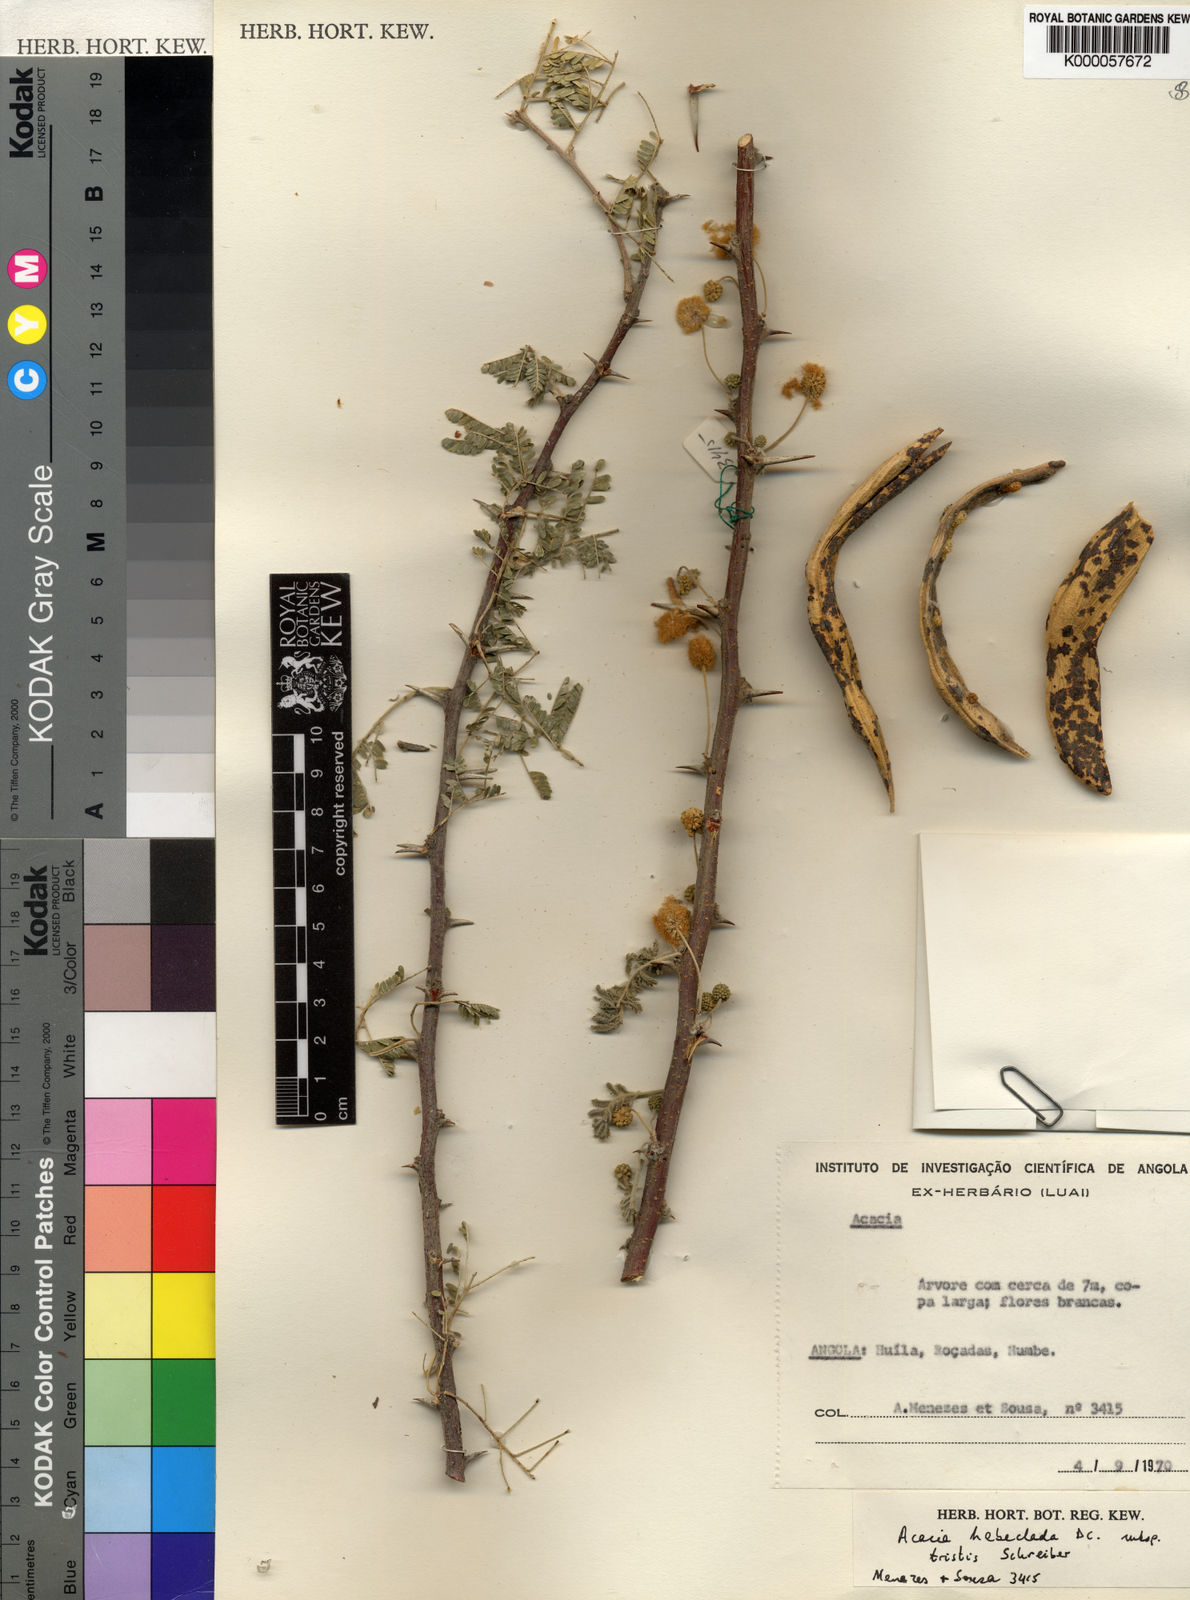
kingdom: Plantae
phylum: Tracheophyta
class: Magnoliopsida
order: Fabales
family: Fabaceae
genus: Vachellia
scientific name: Vachellia hebeclada
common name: Candle thorn
